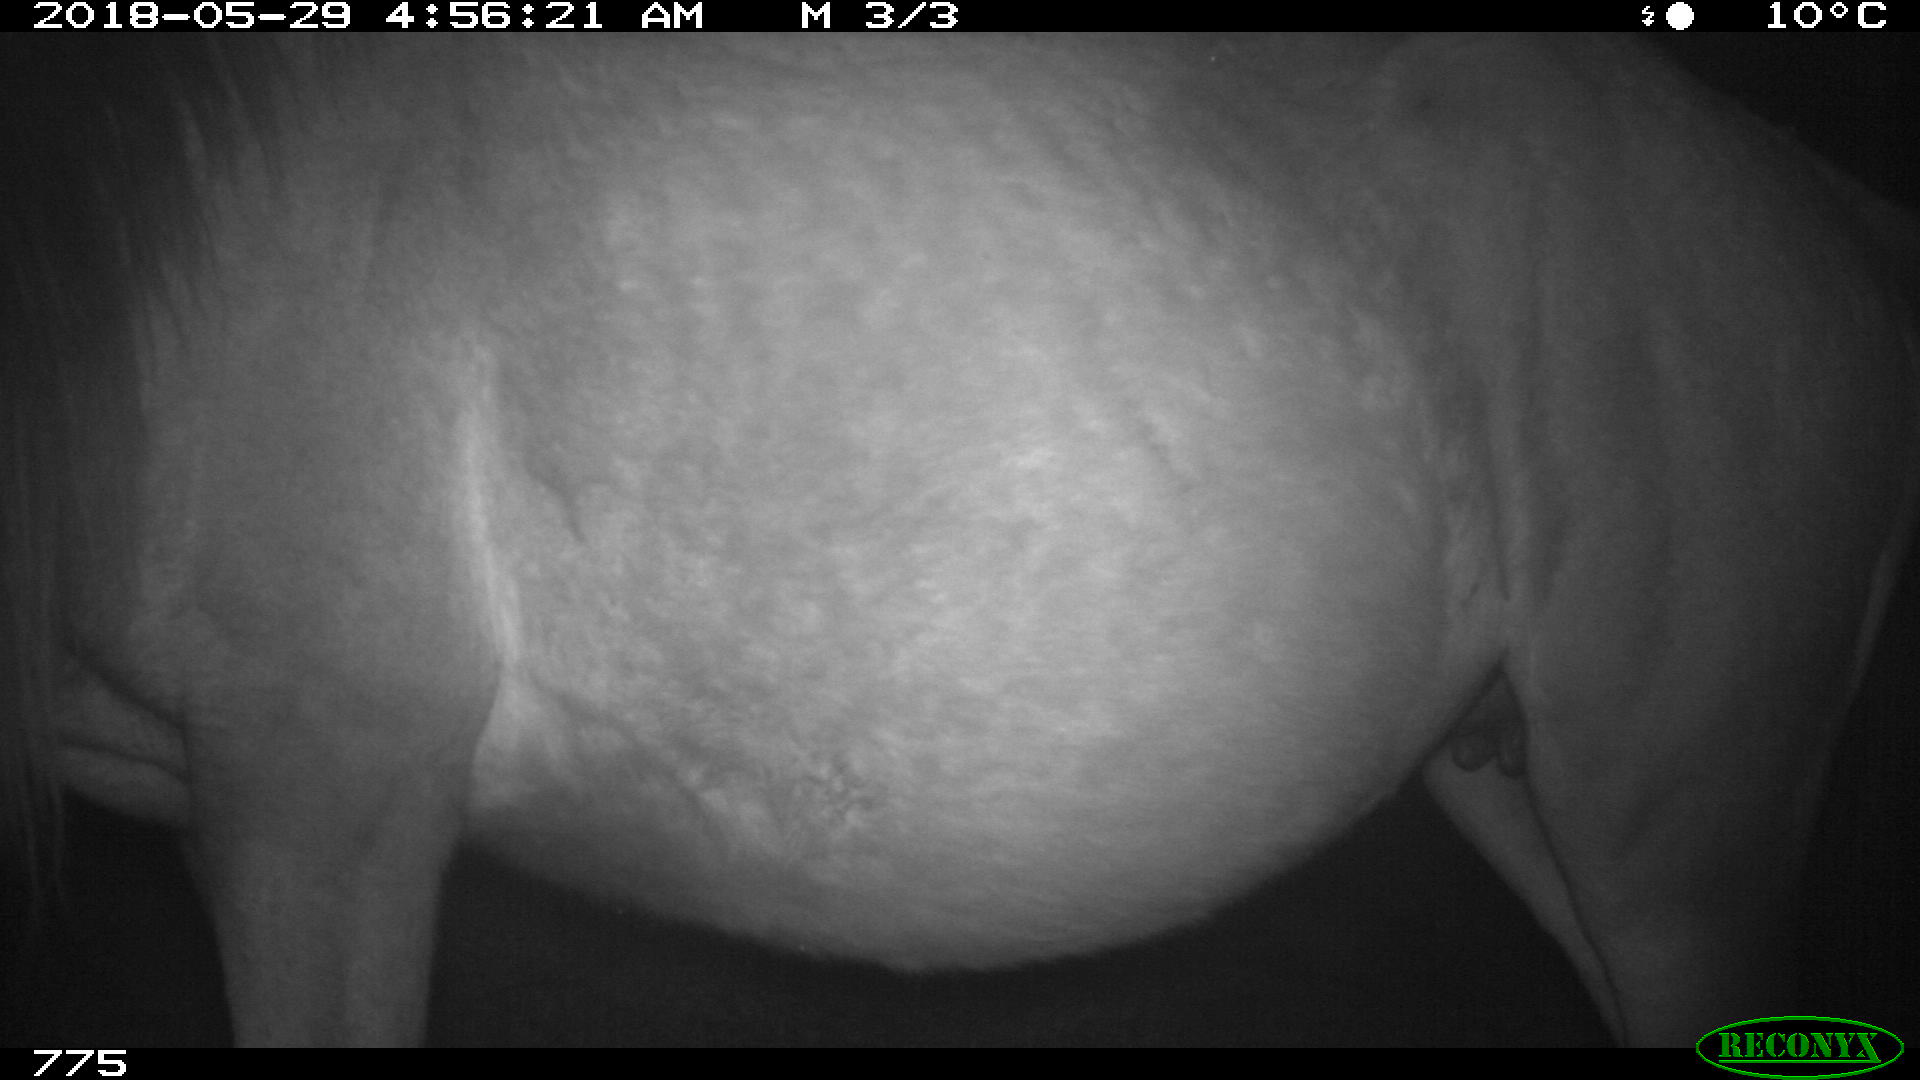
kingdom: Animalia
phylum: Chordata
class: Mammalia
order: Perissodactyla
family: Equidae
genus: Equus
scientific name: Equus caballus
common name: Horse
